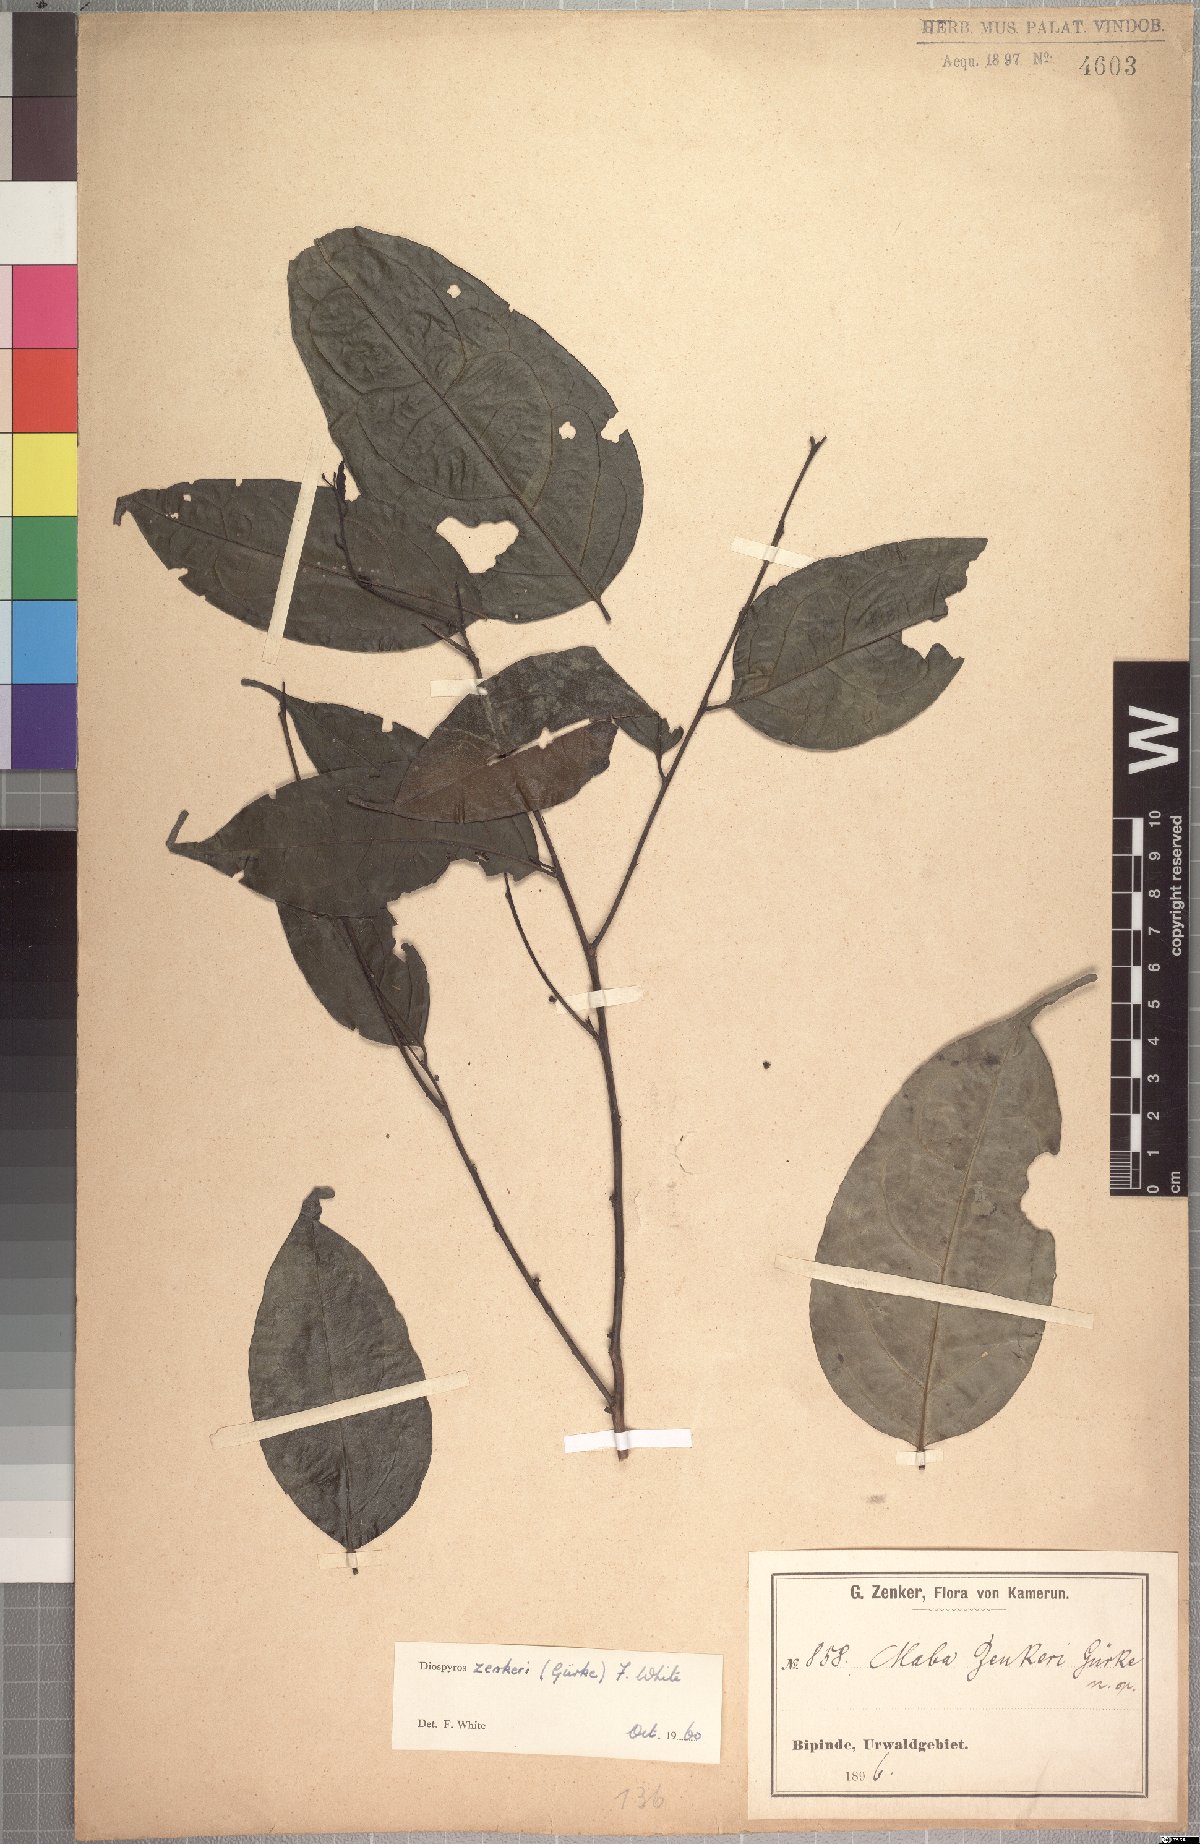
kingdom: Plantae
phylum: Tracheophyta
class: Magnoliopsida
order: Ericales
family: Ebenaceae
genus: Diospyros
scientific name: Diospyros zenkeri
